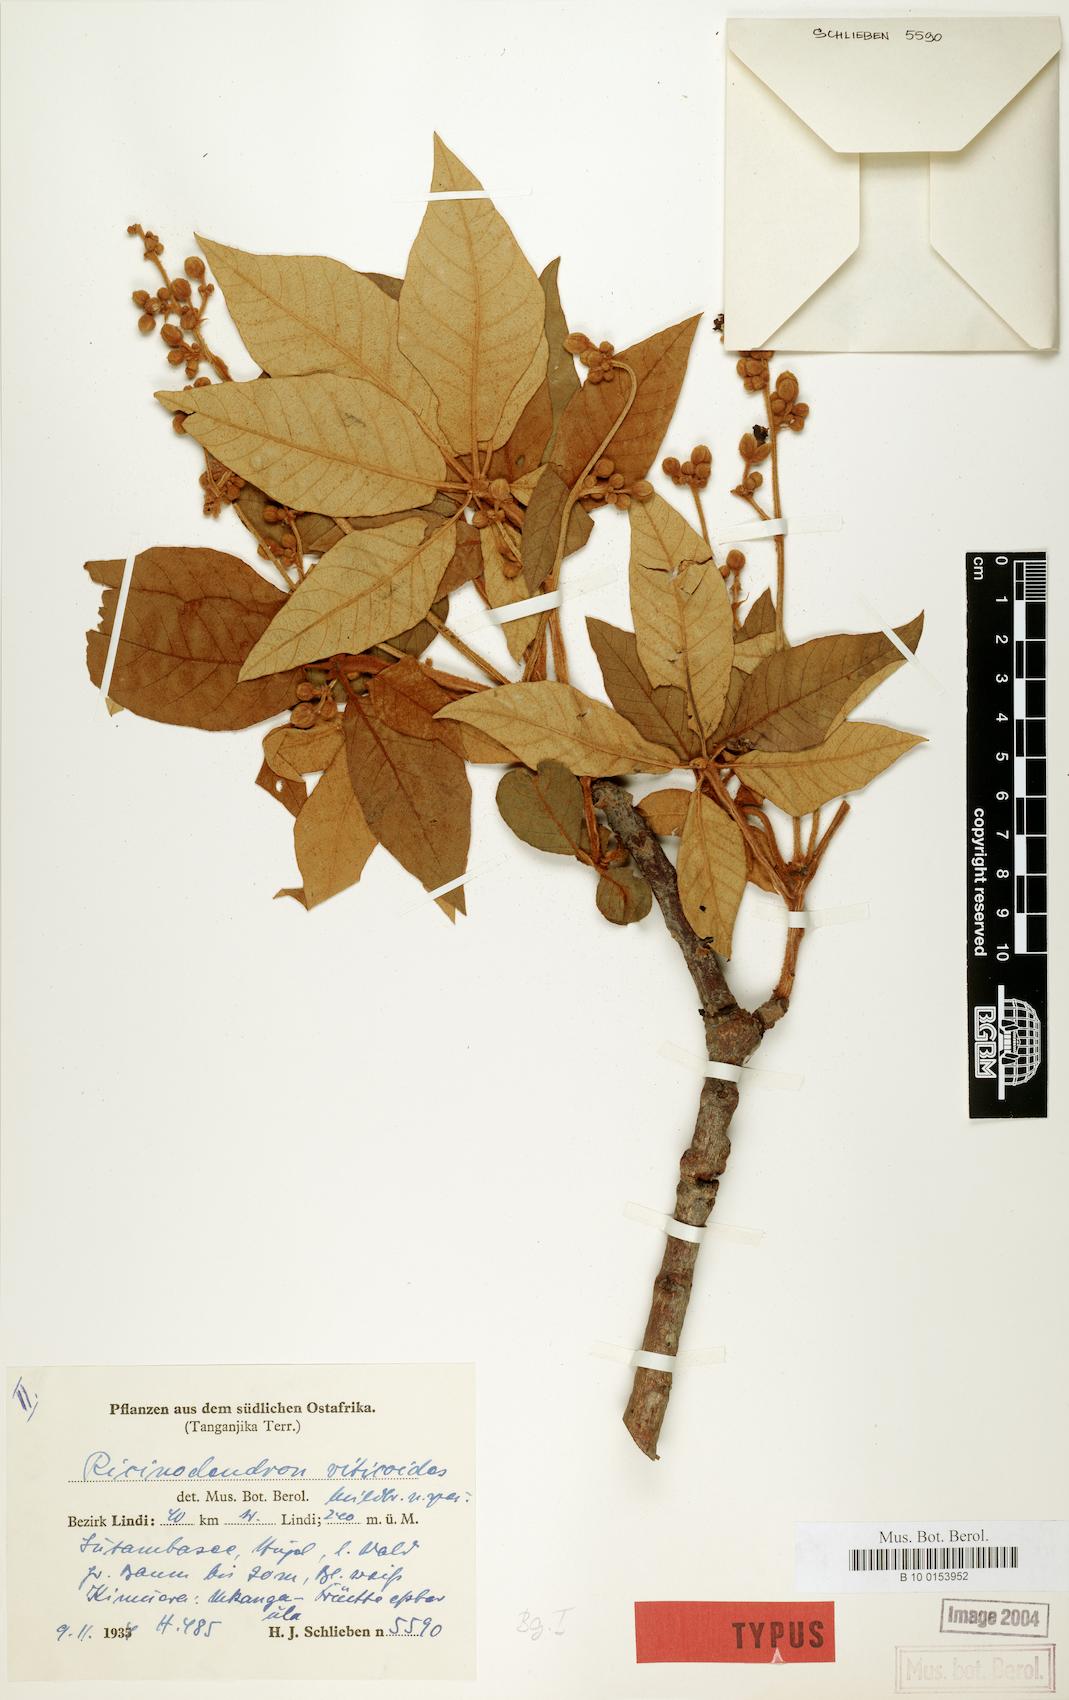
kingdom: Plantae
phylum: Tracheophyta
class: Magnoliopsida
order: Malpighiales
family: Euphorbiaceae
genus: Schinziophyton
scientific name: Schinziophyton rautanenii
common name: Manketti
